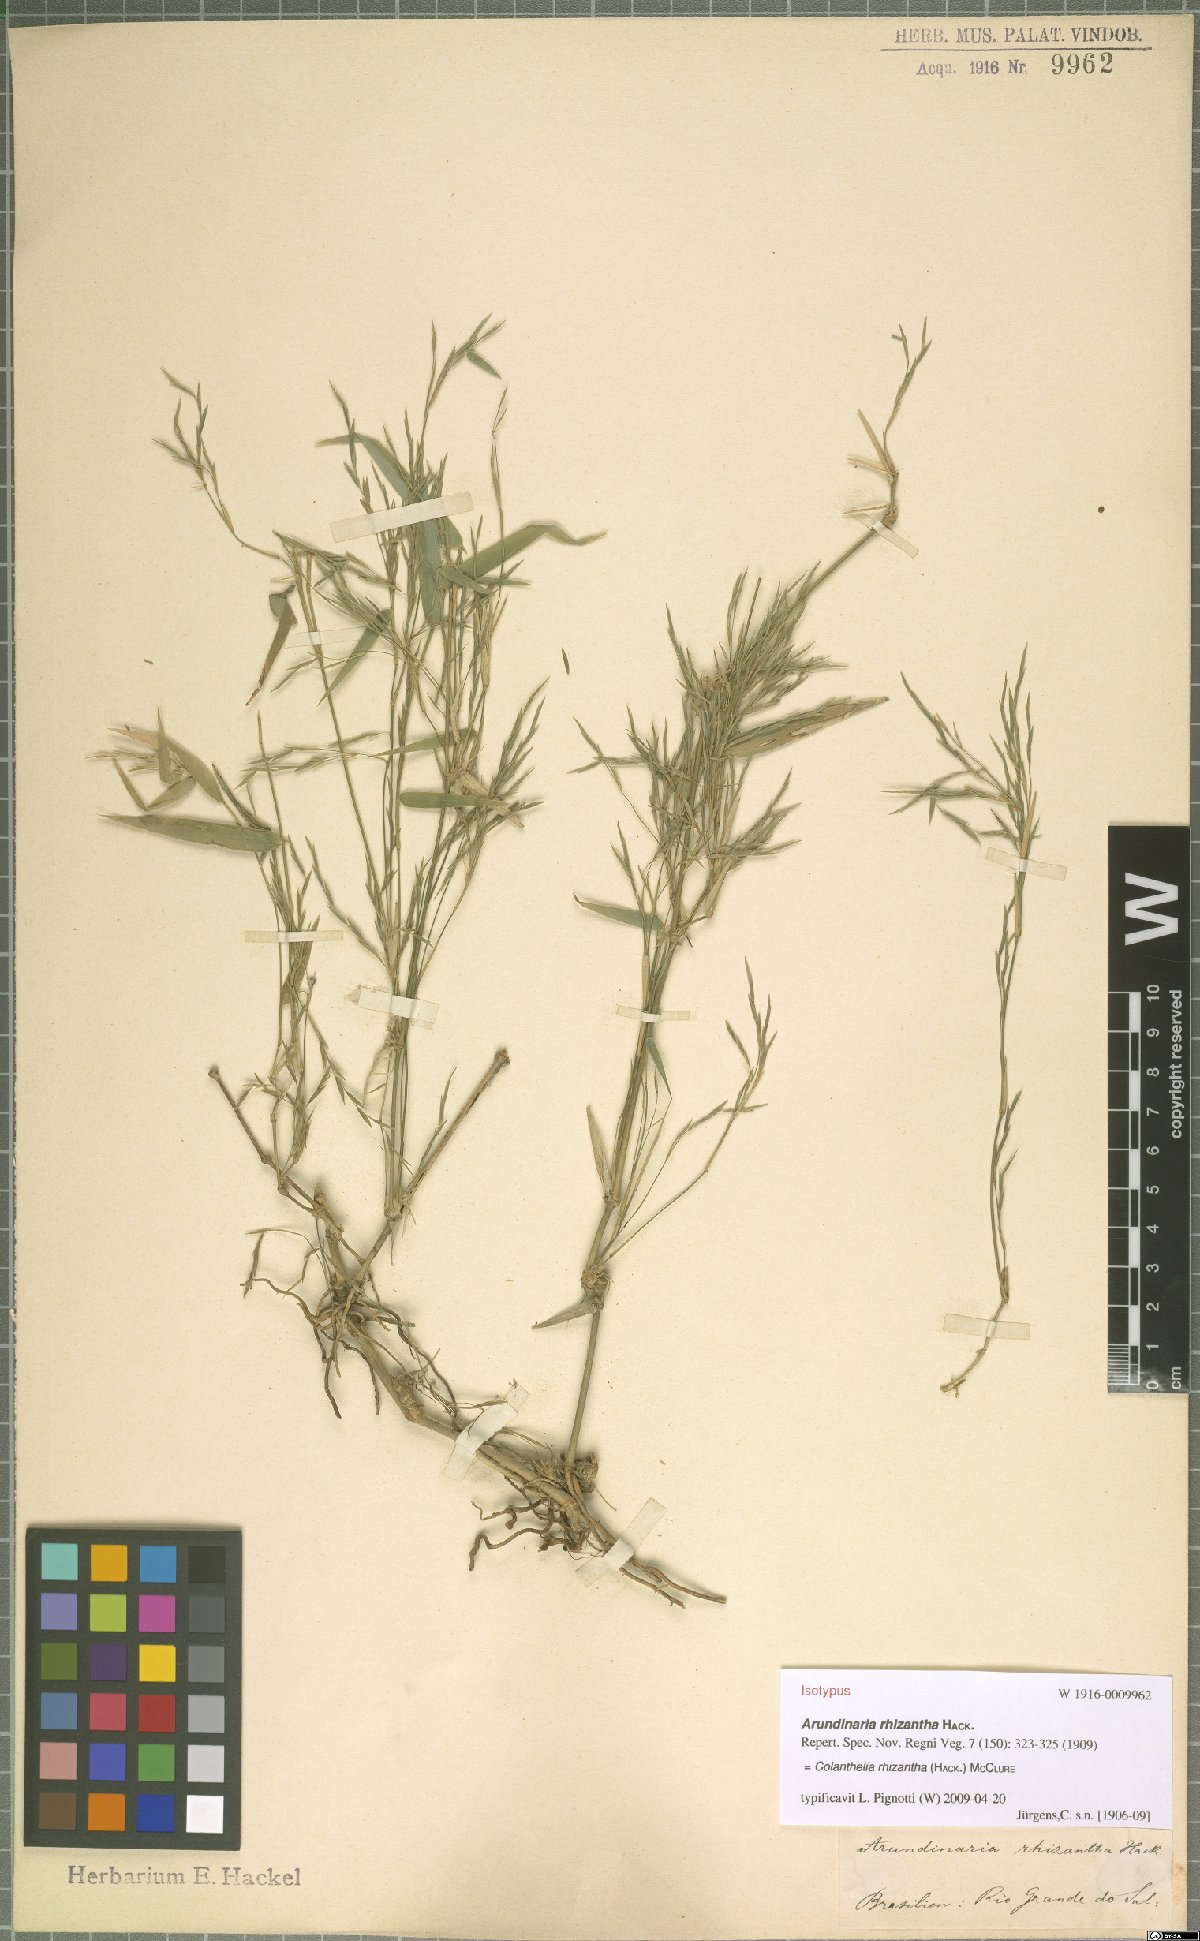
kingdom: Plantae
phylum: Tracheophyta
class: Liliopsida
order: Poales
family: Poaceae
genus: Colanthelia
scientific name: Colanthelia rhizantha
